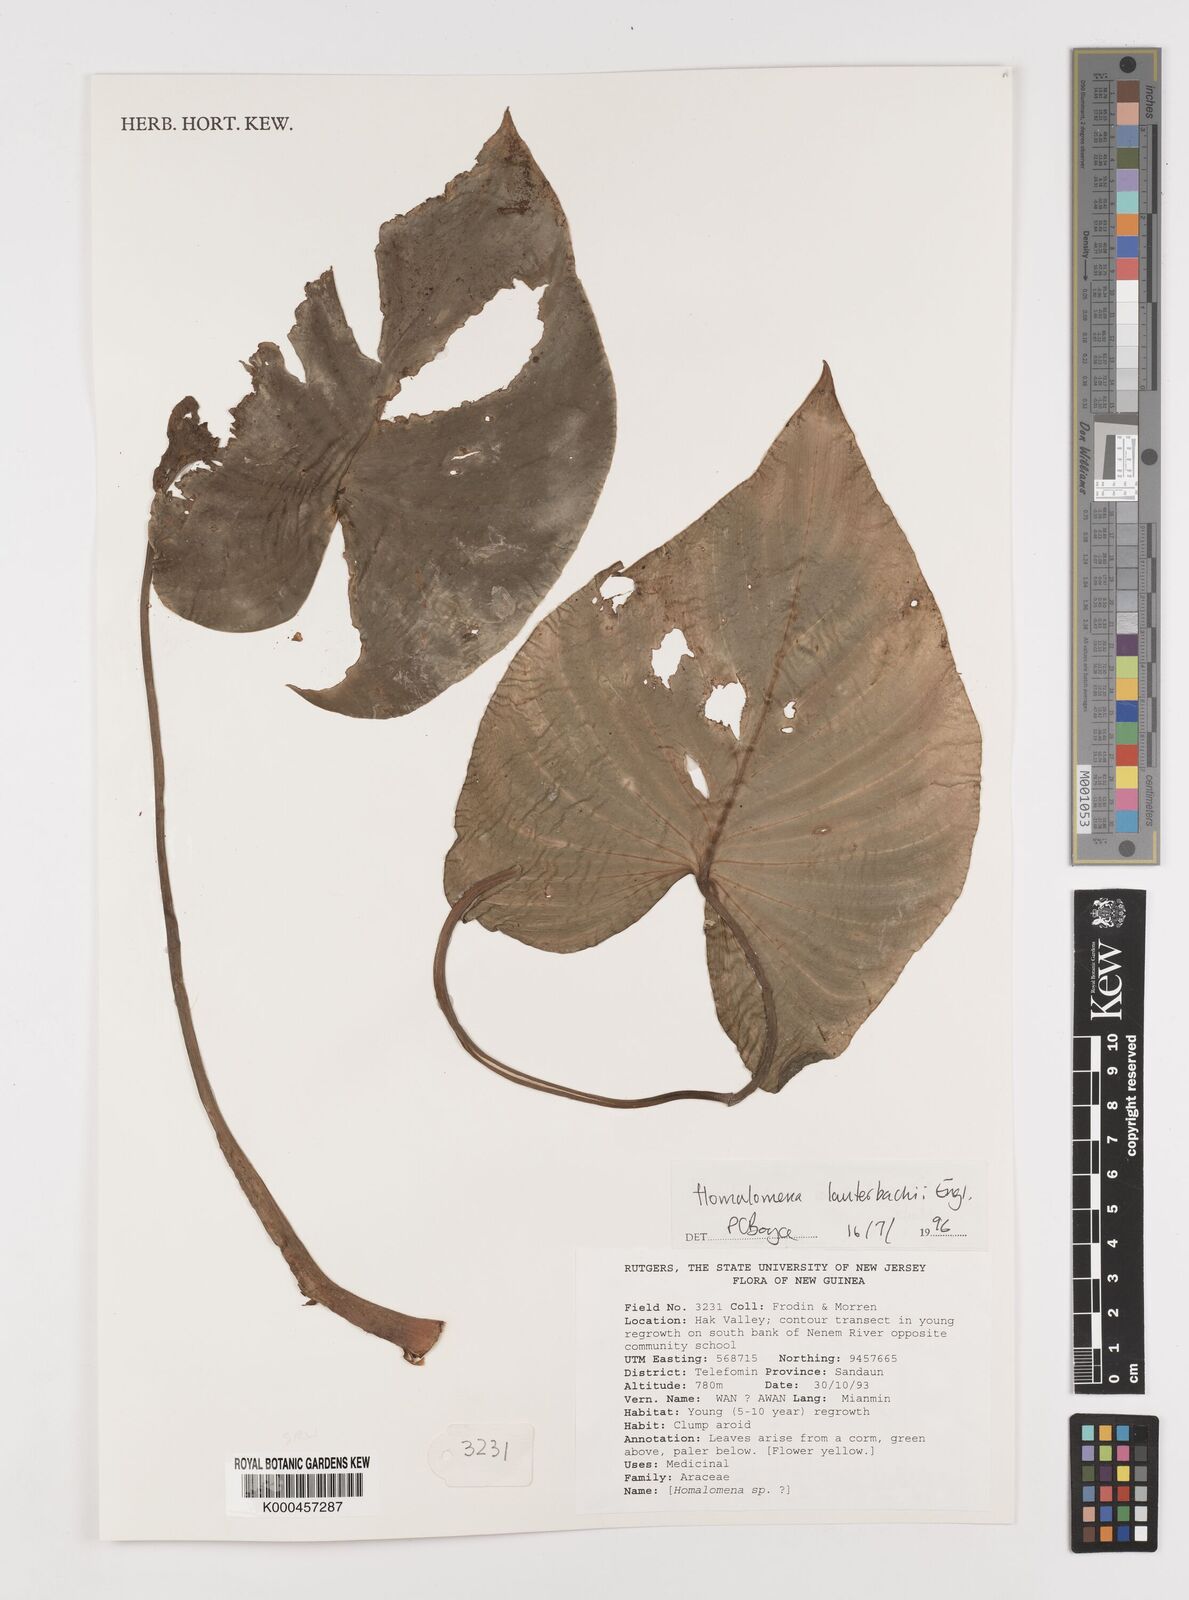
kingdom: Plantae
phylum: Tracheophyta
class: Liliopsida
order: Alismatales
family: Araceae
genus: Homalomena
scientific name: Homalomena lauterbachii
